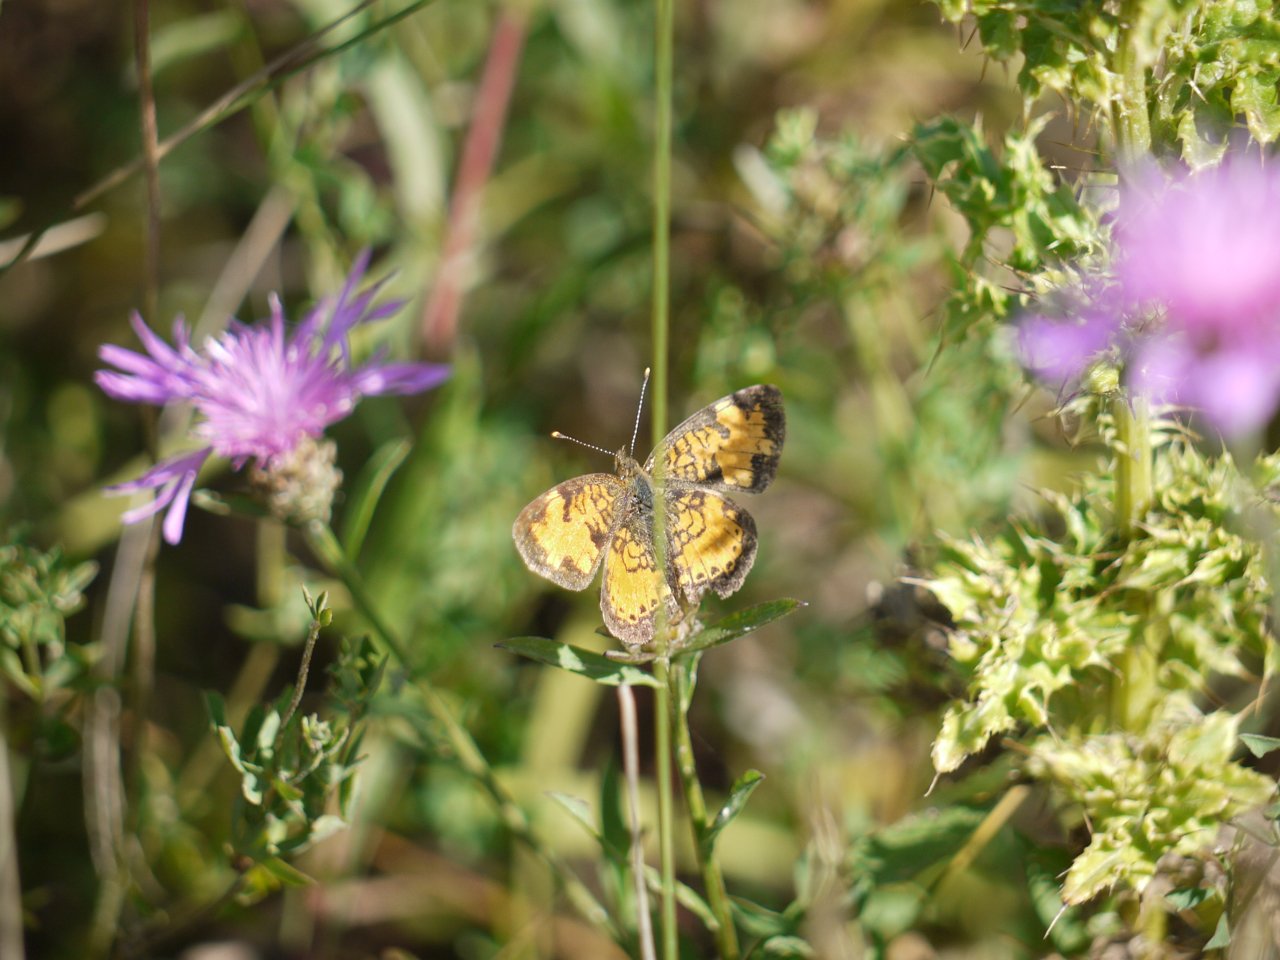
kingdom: Animalia
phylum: Arthropoda
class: Insecta
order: Lepidoptera
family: Nymphalidae
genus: Phyciodes
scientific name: Phyciodes tharos
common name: Northern Crescent
